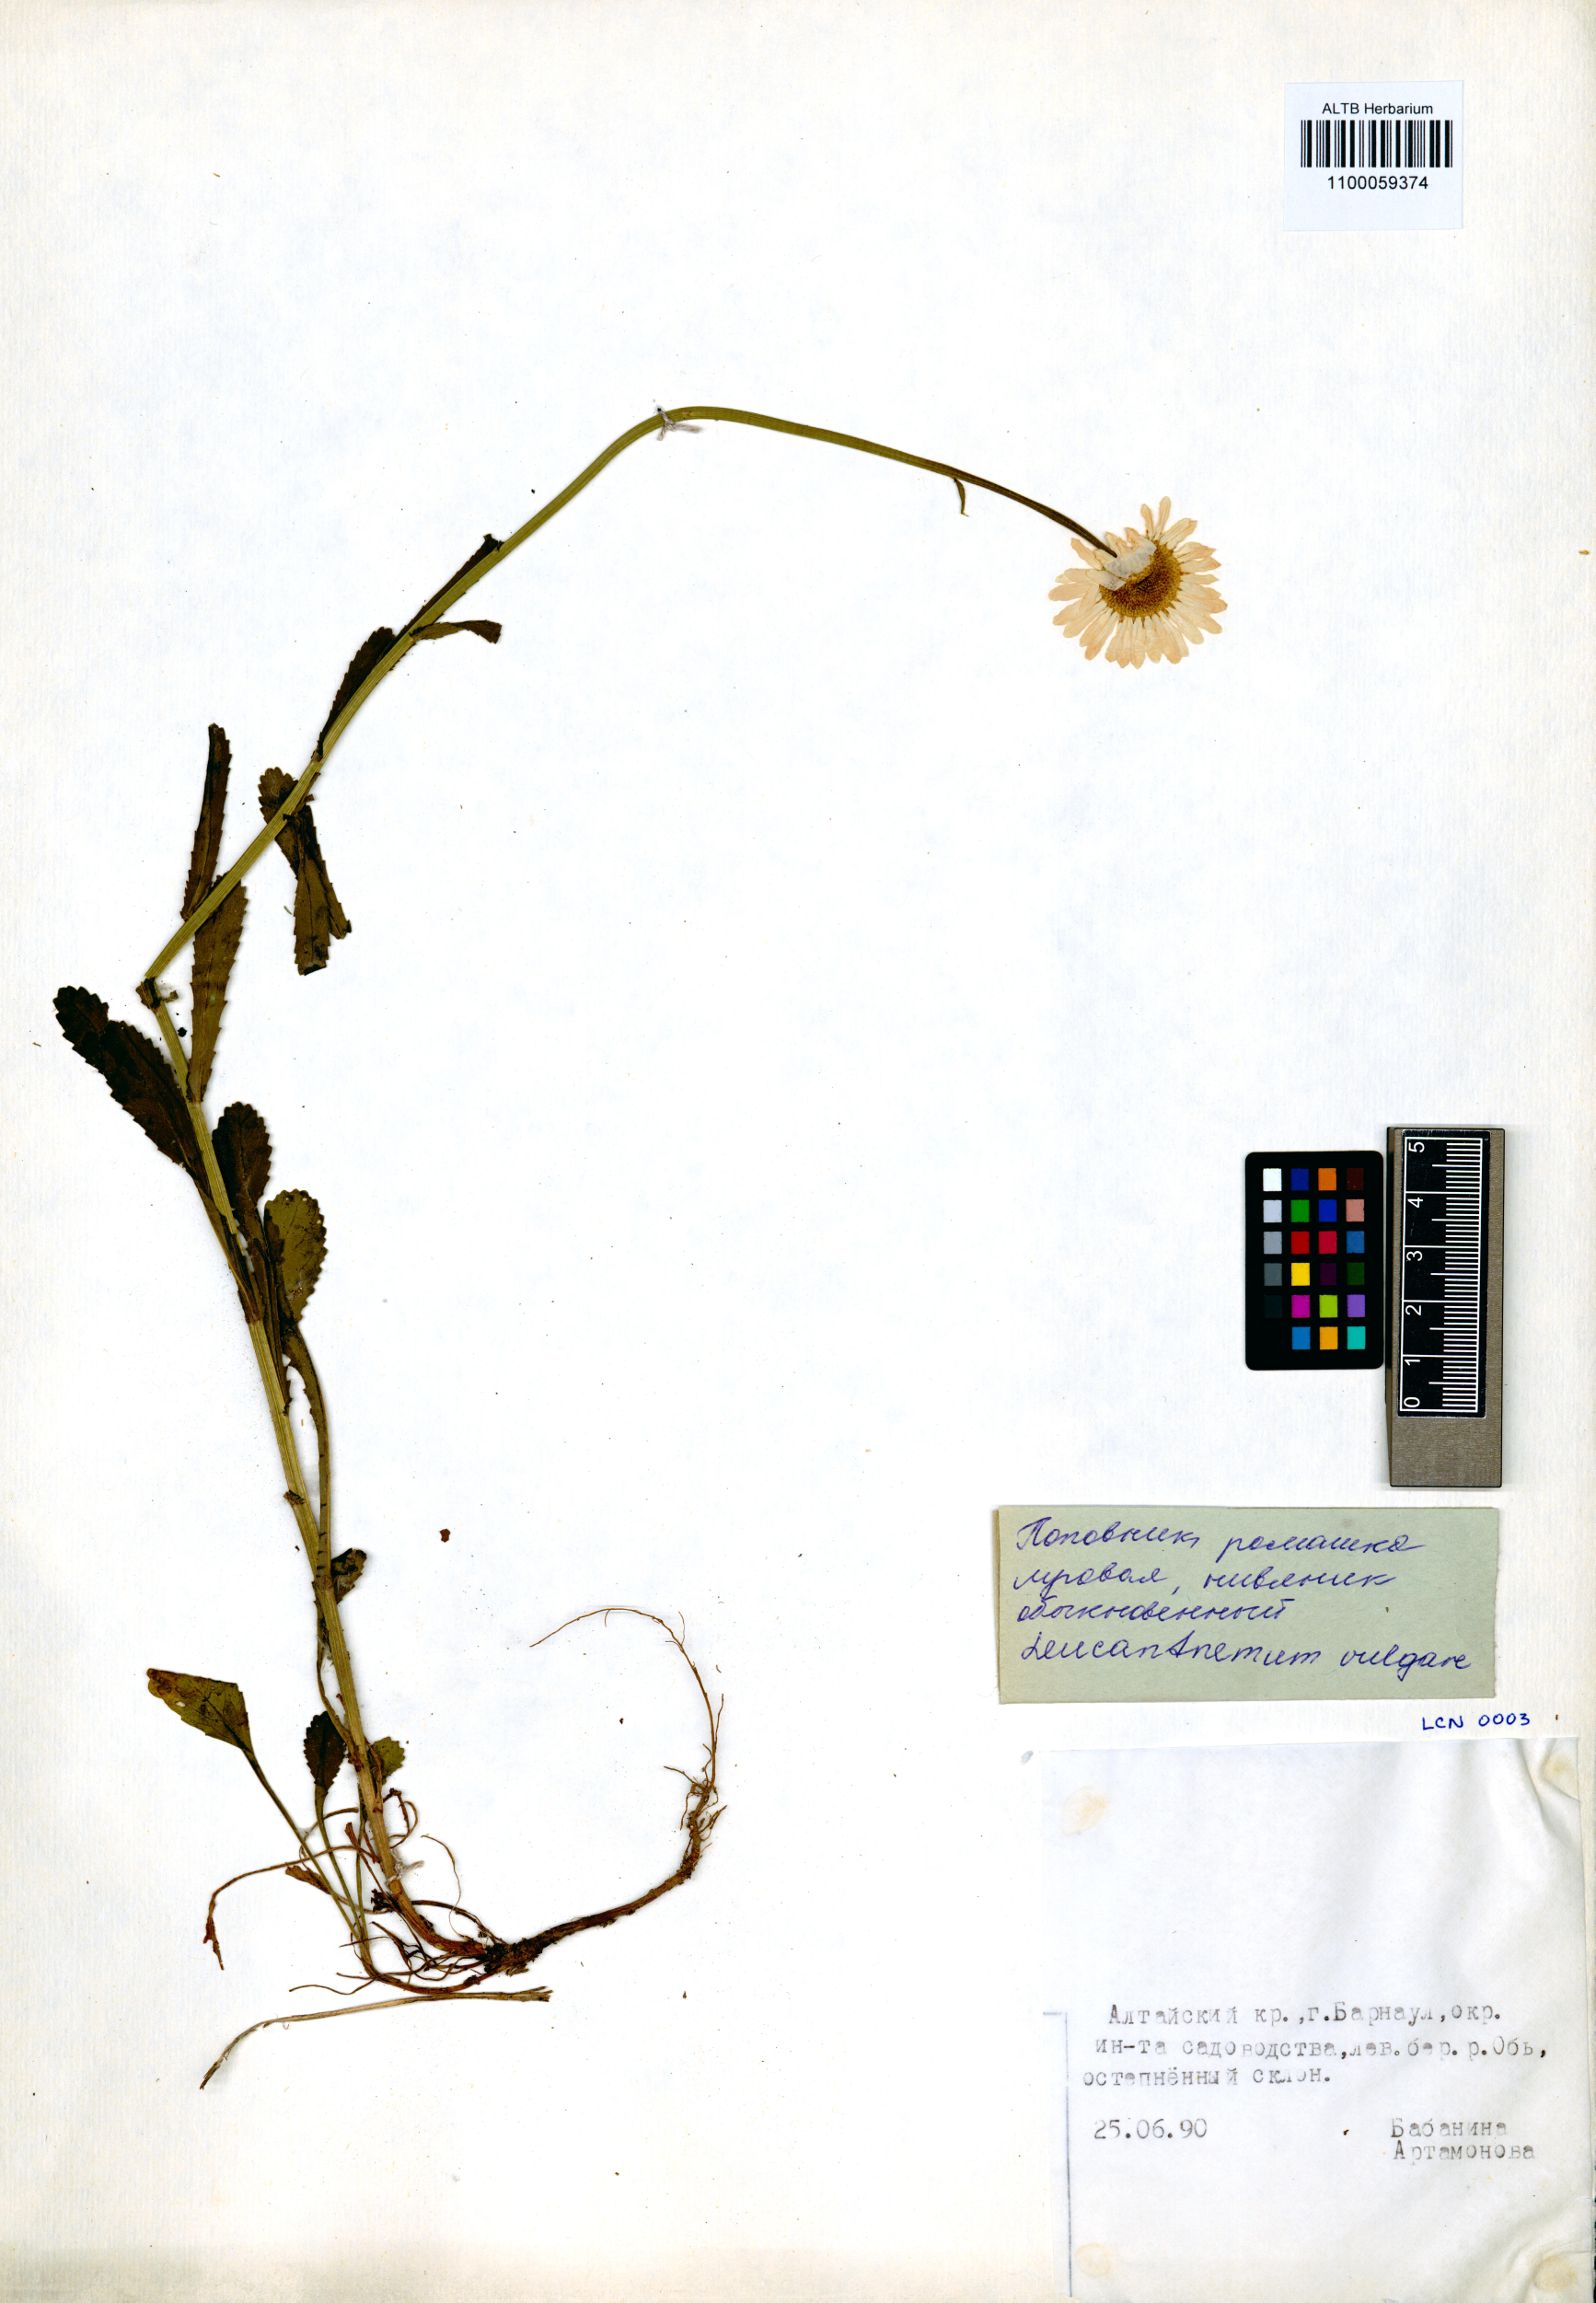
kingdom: Plantae
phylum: Tracheophyta
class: Magnoliopsida
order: Asterales
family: Asteraceae
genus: Leucanthemum
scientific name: Leucanthemum vulgare
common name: Oxeye daisy
